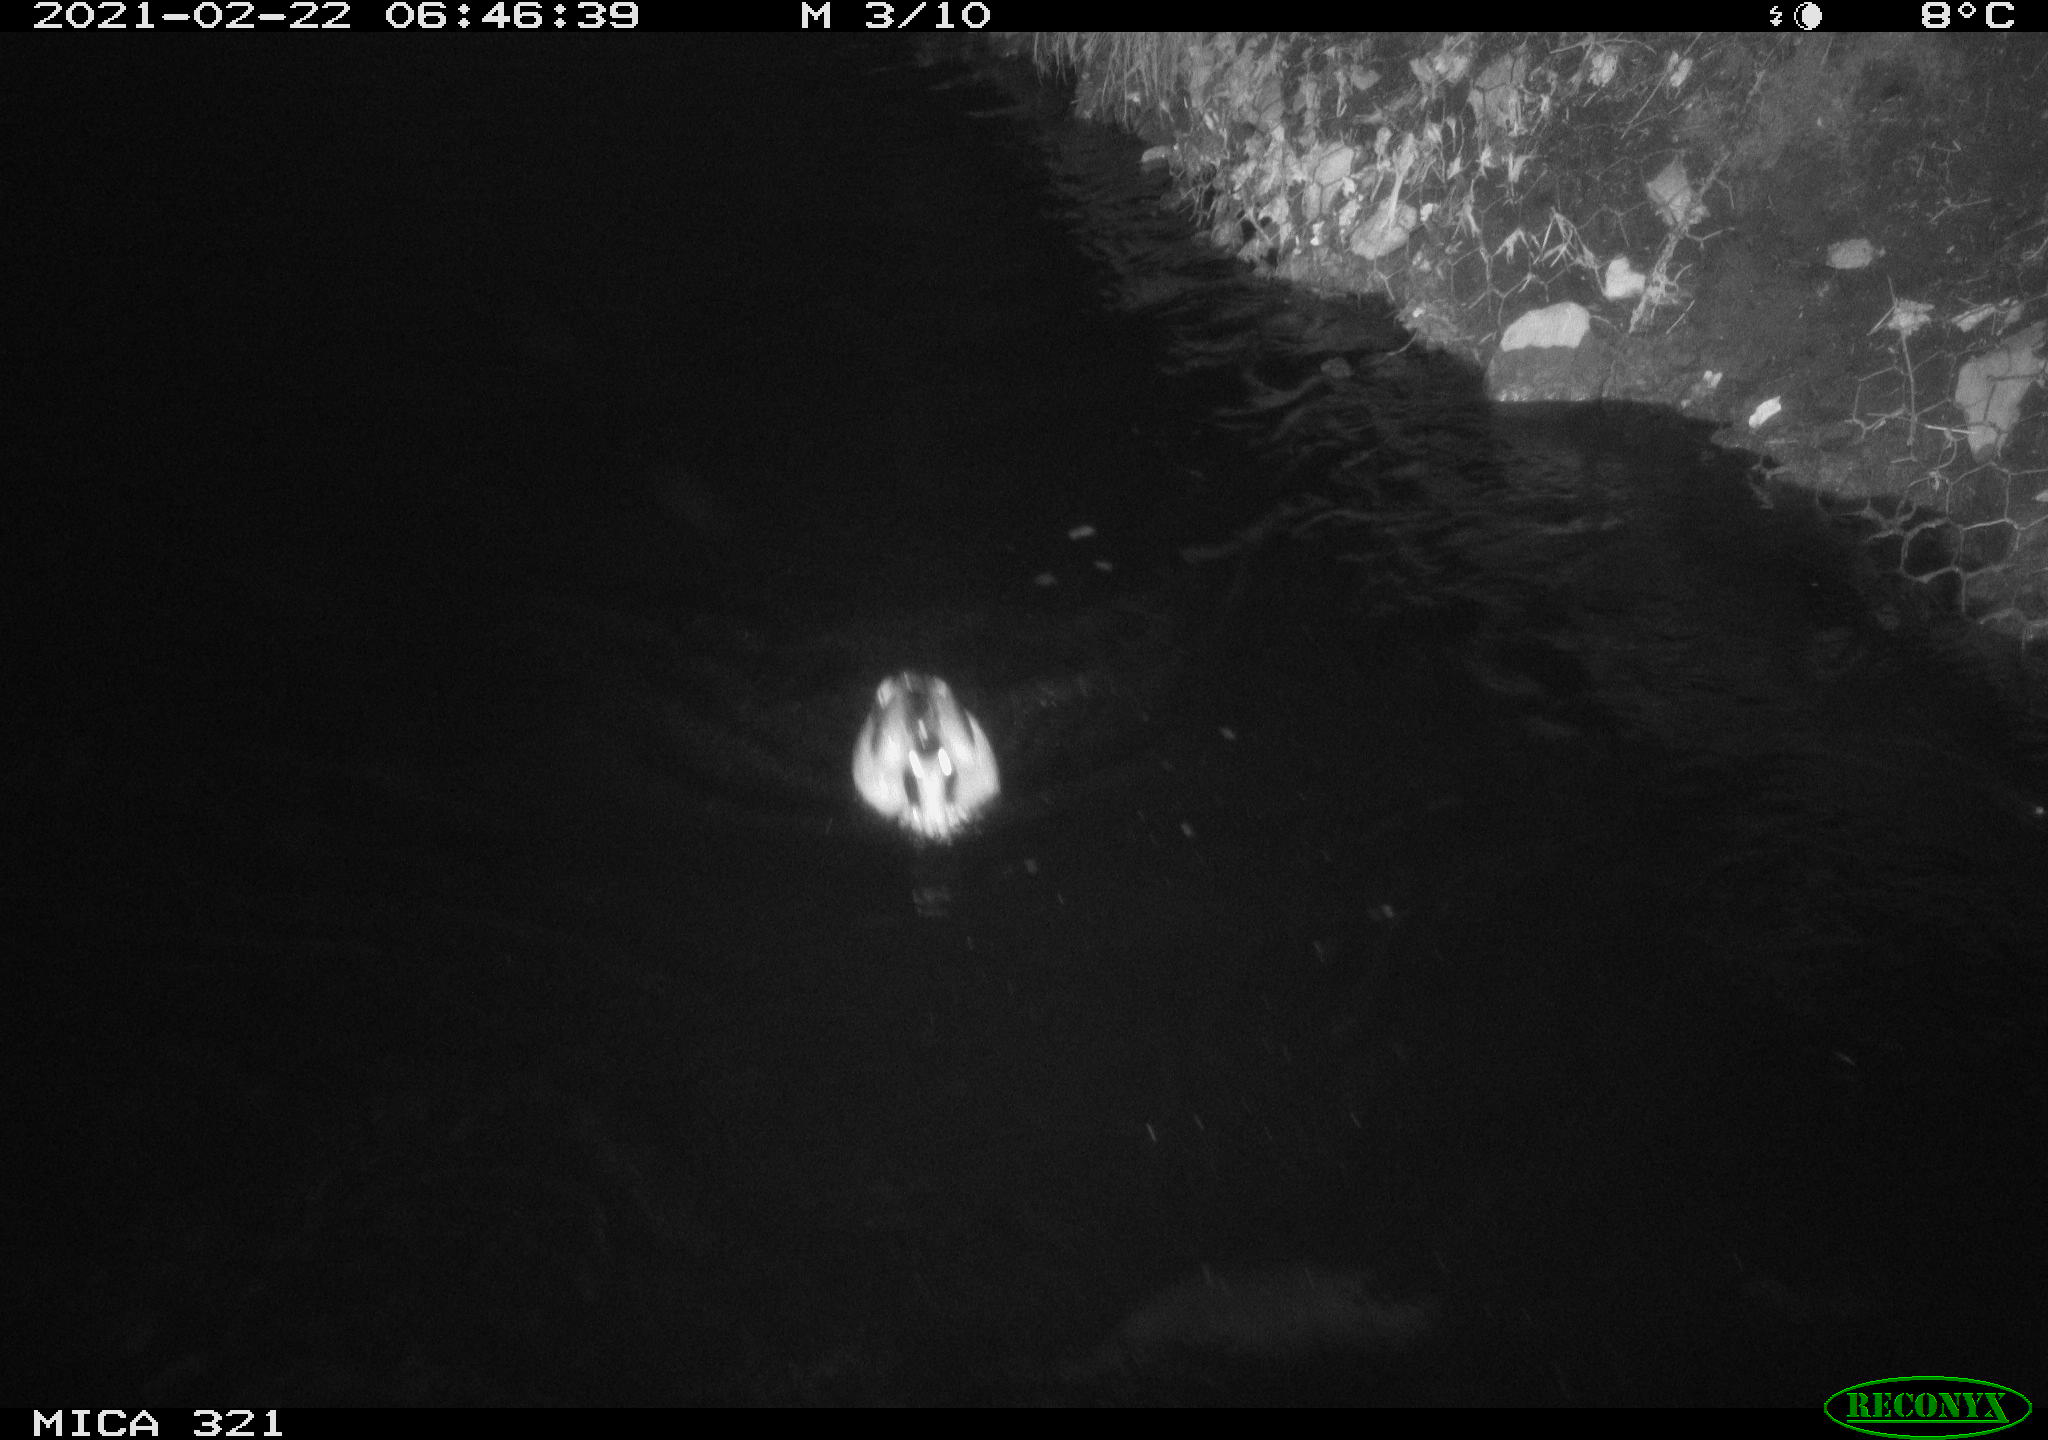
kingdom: Animalia
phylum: Chordata
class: Aves
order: Anseriformes
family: Anatidae
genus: Anas
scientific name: Anas platyrhynchos
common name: Mallard
